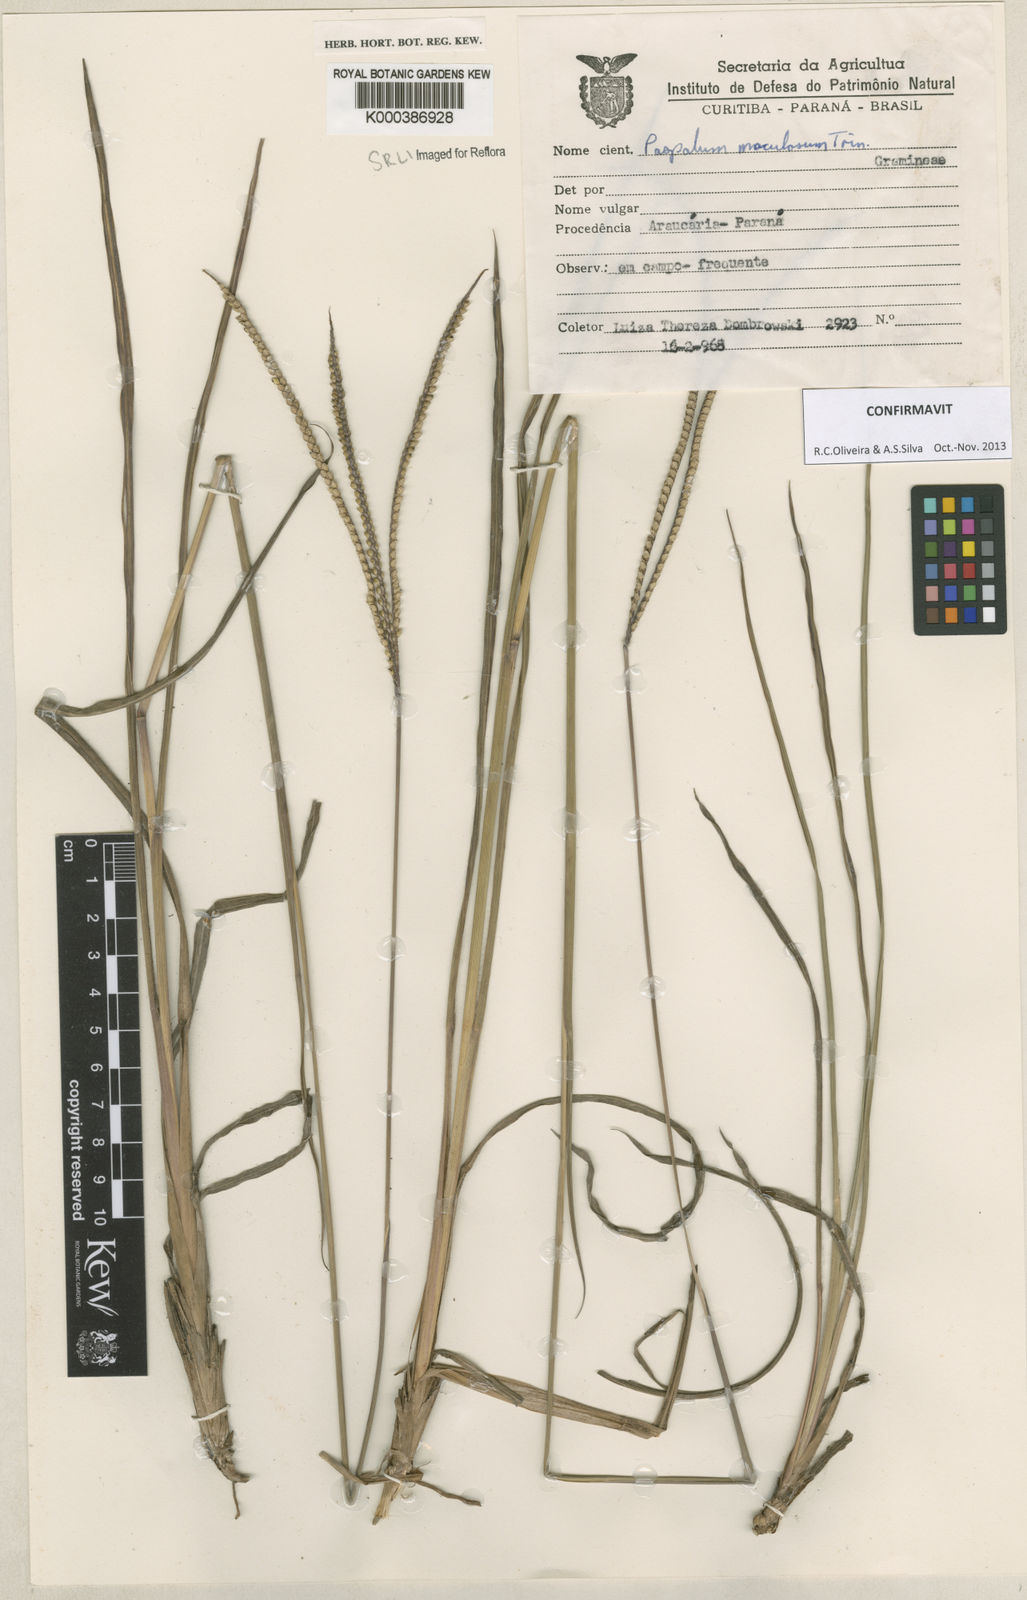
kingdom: Plantae
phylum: Tracheophyta
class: Liliopsida
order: Poales
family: Poaceae
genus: Paspalum
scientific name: Paspalum maculosum
